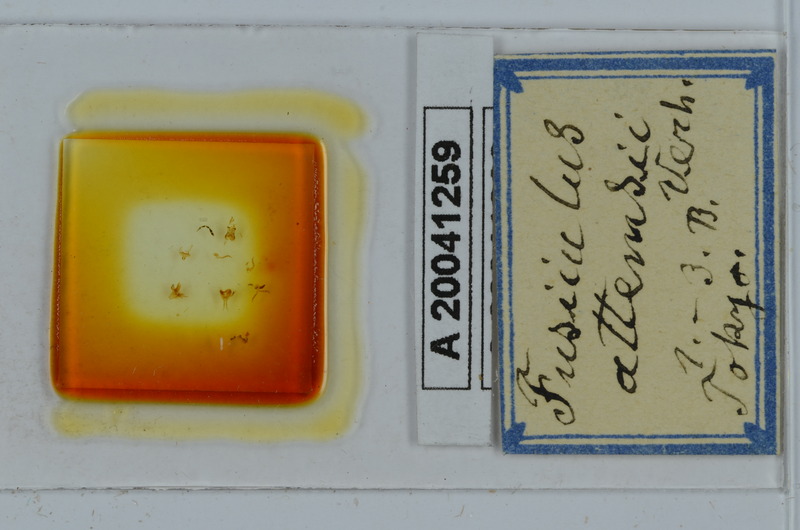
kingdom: Animalia
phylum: Arthropoda
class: Diplopoda
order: Julida
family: Julidae
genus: Anaulaciulus
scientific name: Anaulaciulus attemsii
